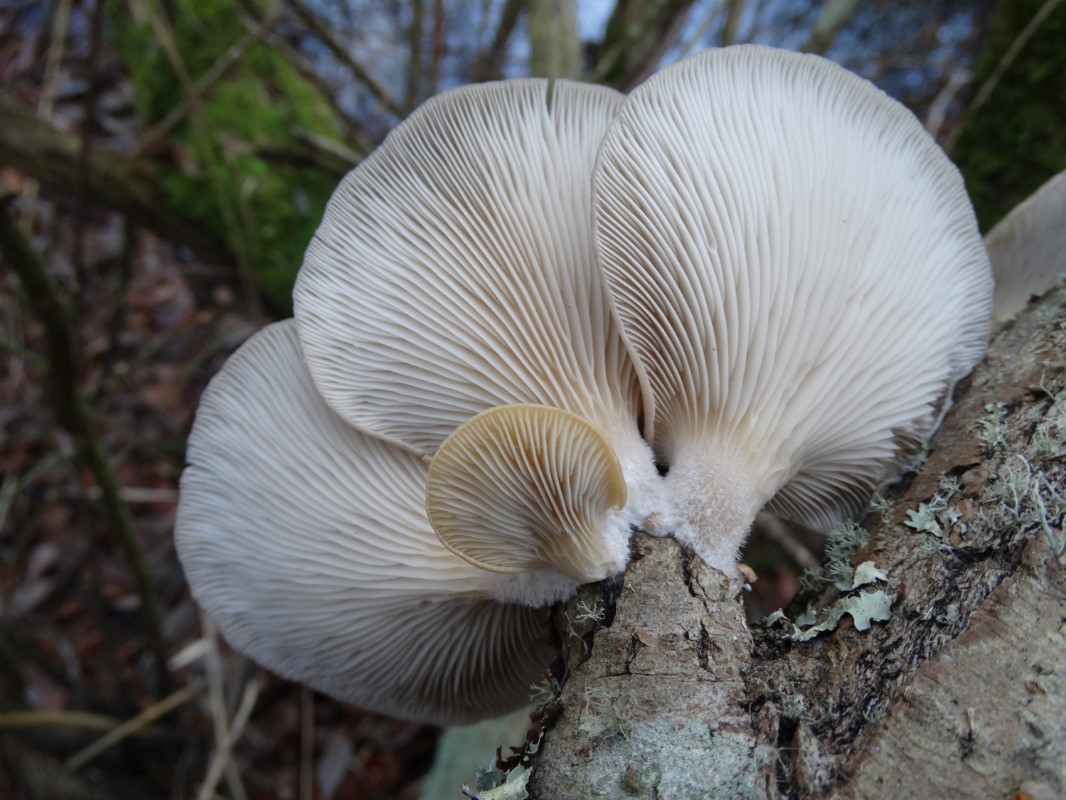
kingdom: Fungi
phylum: Basidiomycota
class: Agaricomycetes
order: Agaricales
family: Pleurotaceae
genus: Pleurotus
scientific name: Pleurotus ostreatus
